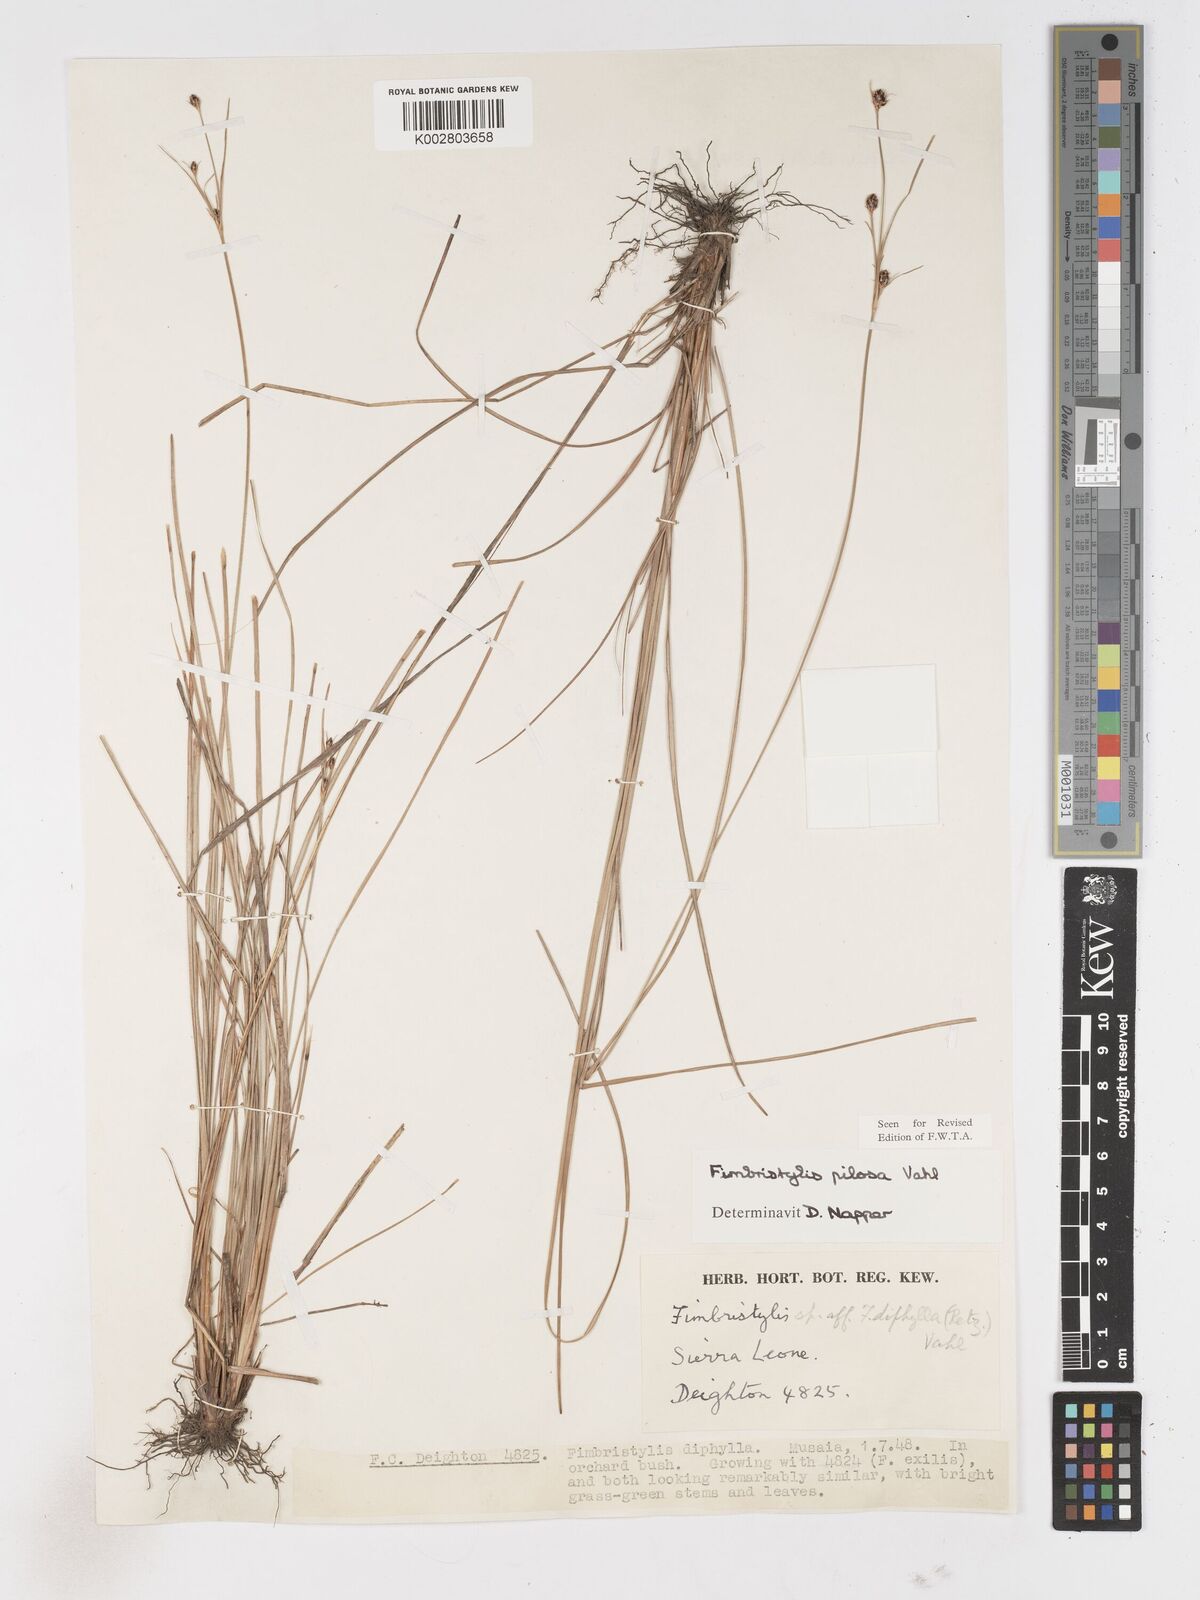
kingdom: Plantae
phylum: Tracheophyta
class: Liliopsida
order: Poales
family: Cyperaceae
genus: Fimbristylis
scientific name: Fimbristylis pilosa
